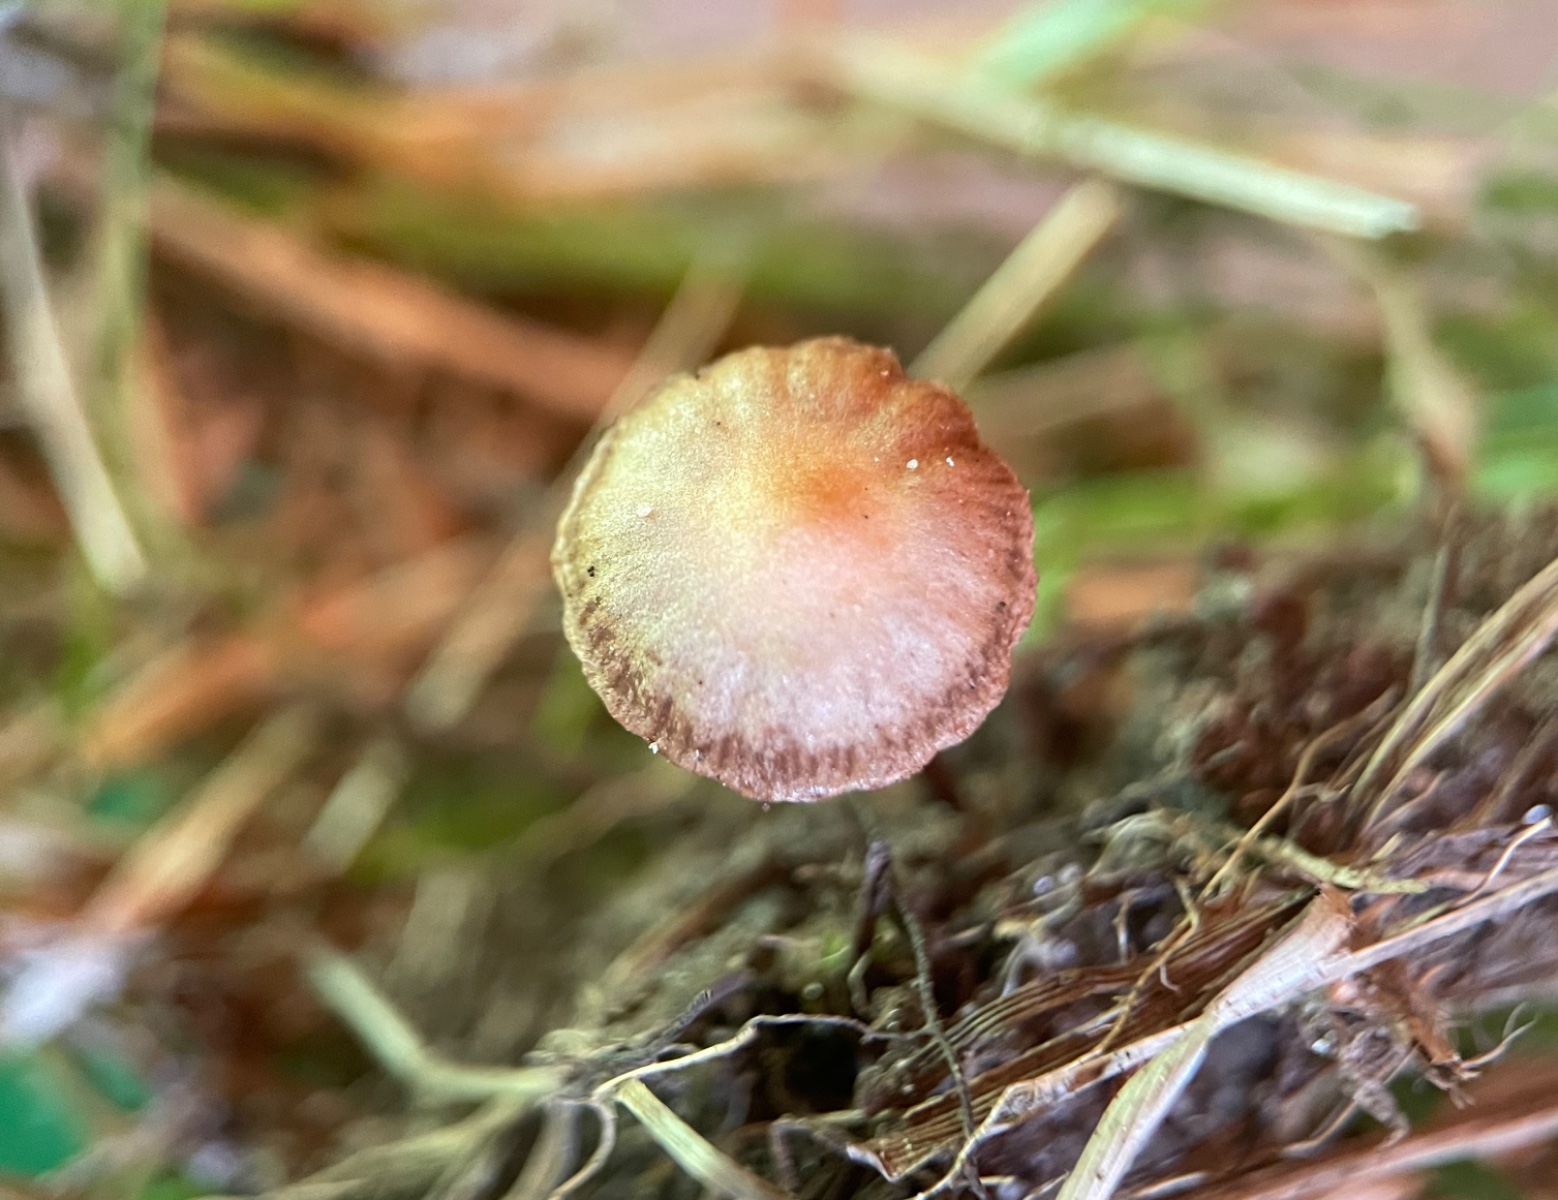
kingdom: Fungi
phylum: Basidiomycota
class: Agaricomycetes
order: Agaricales
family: Strophariaceae
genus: Deconica
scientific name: Deconica
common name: stråhat
